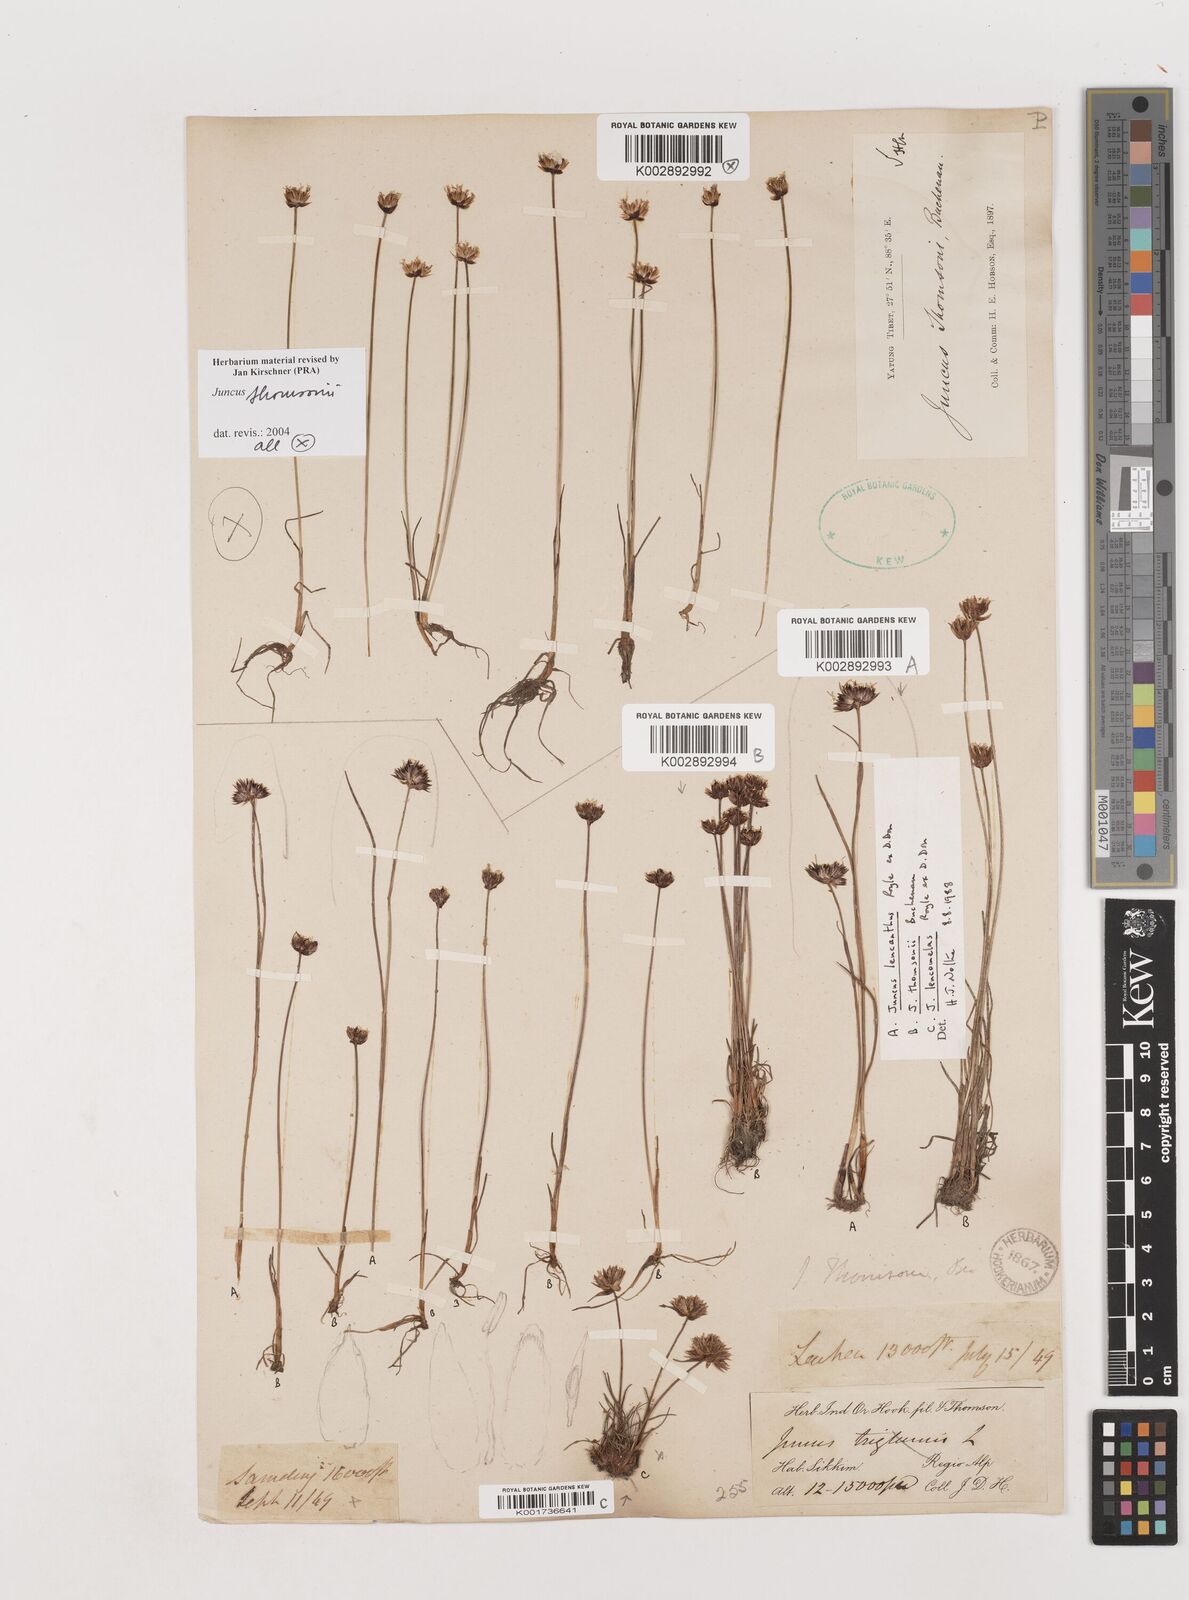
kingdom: Plantae
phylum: Tracheophyta
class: Liliopsida
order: Poales
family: Juncaceae
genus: Juncus
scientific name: Juncus
